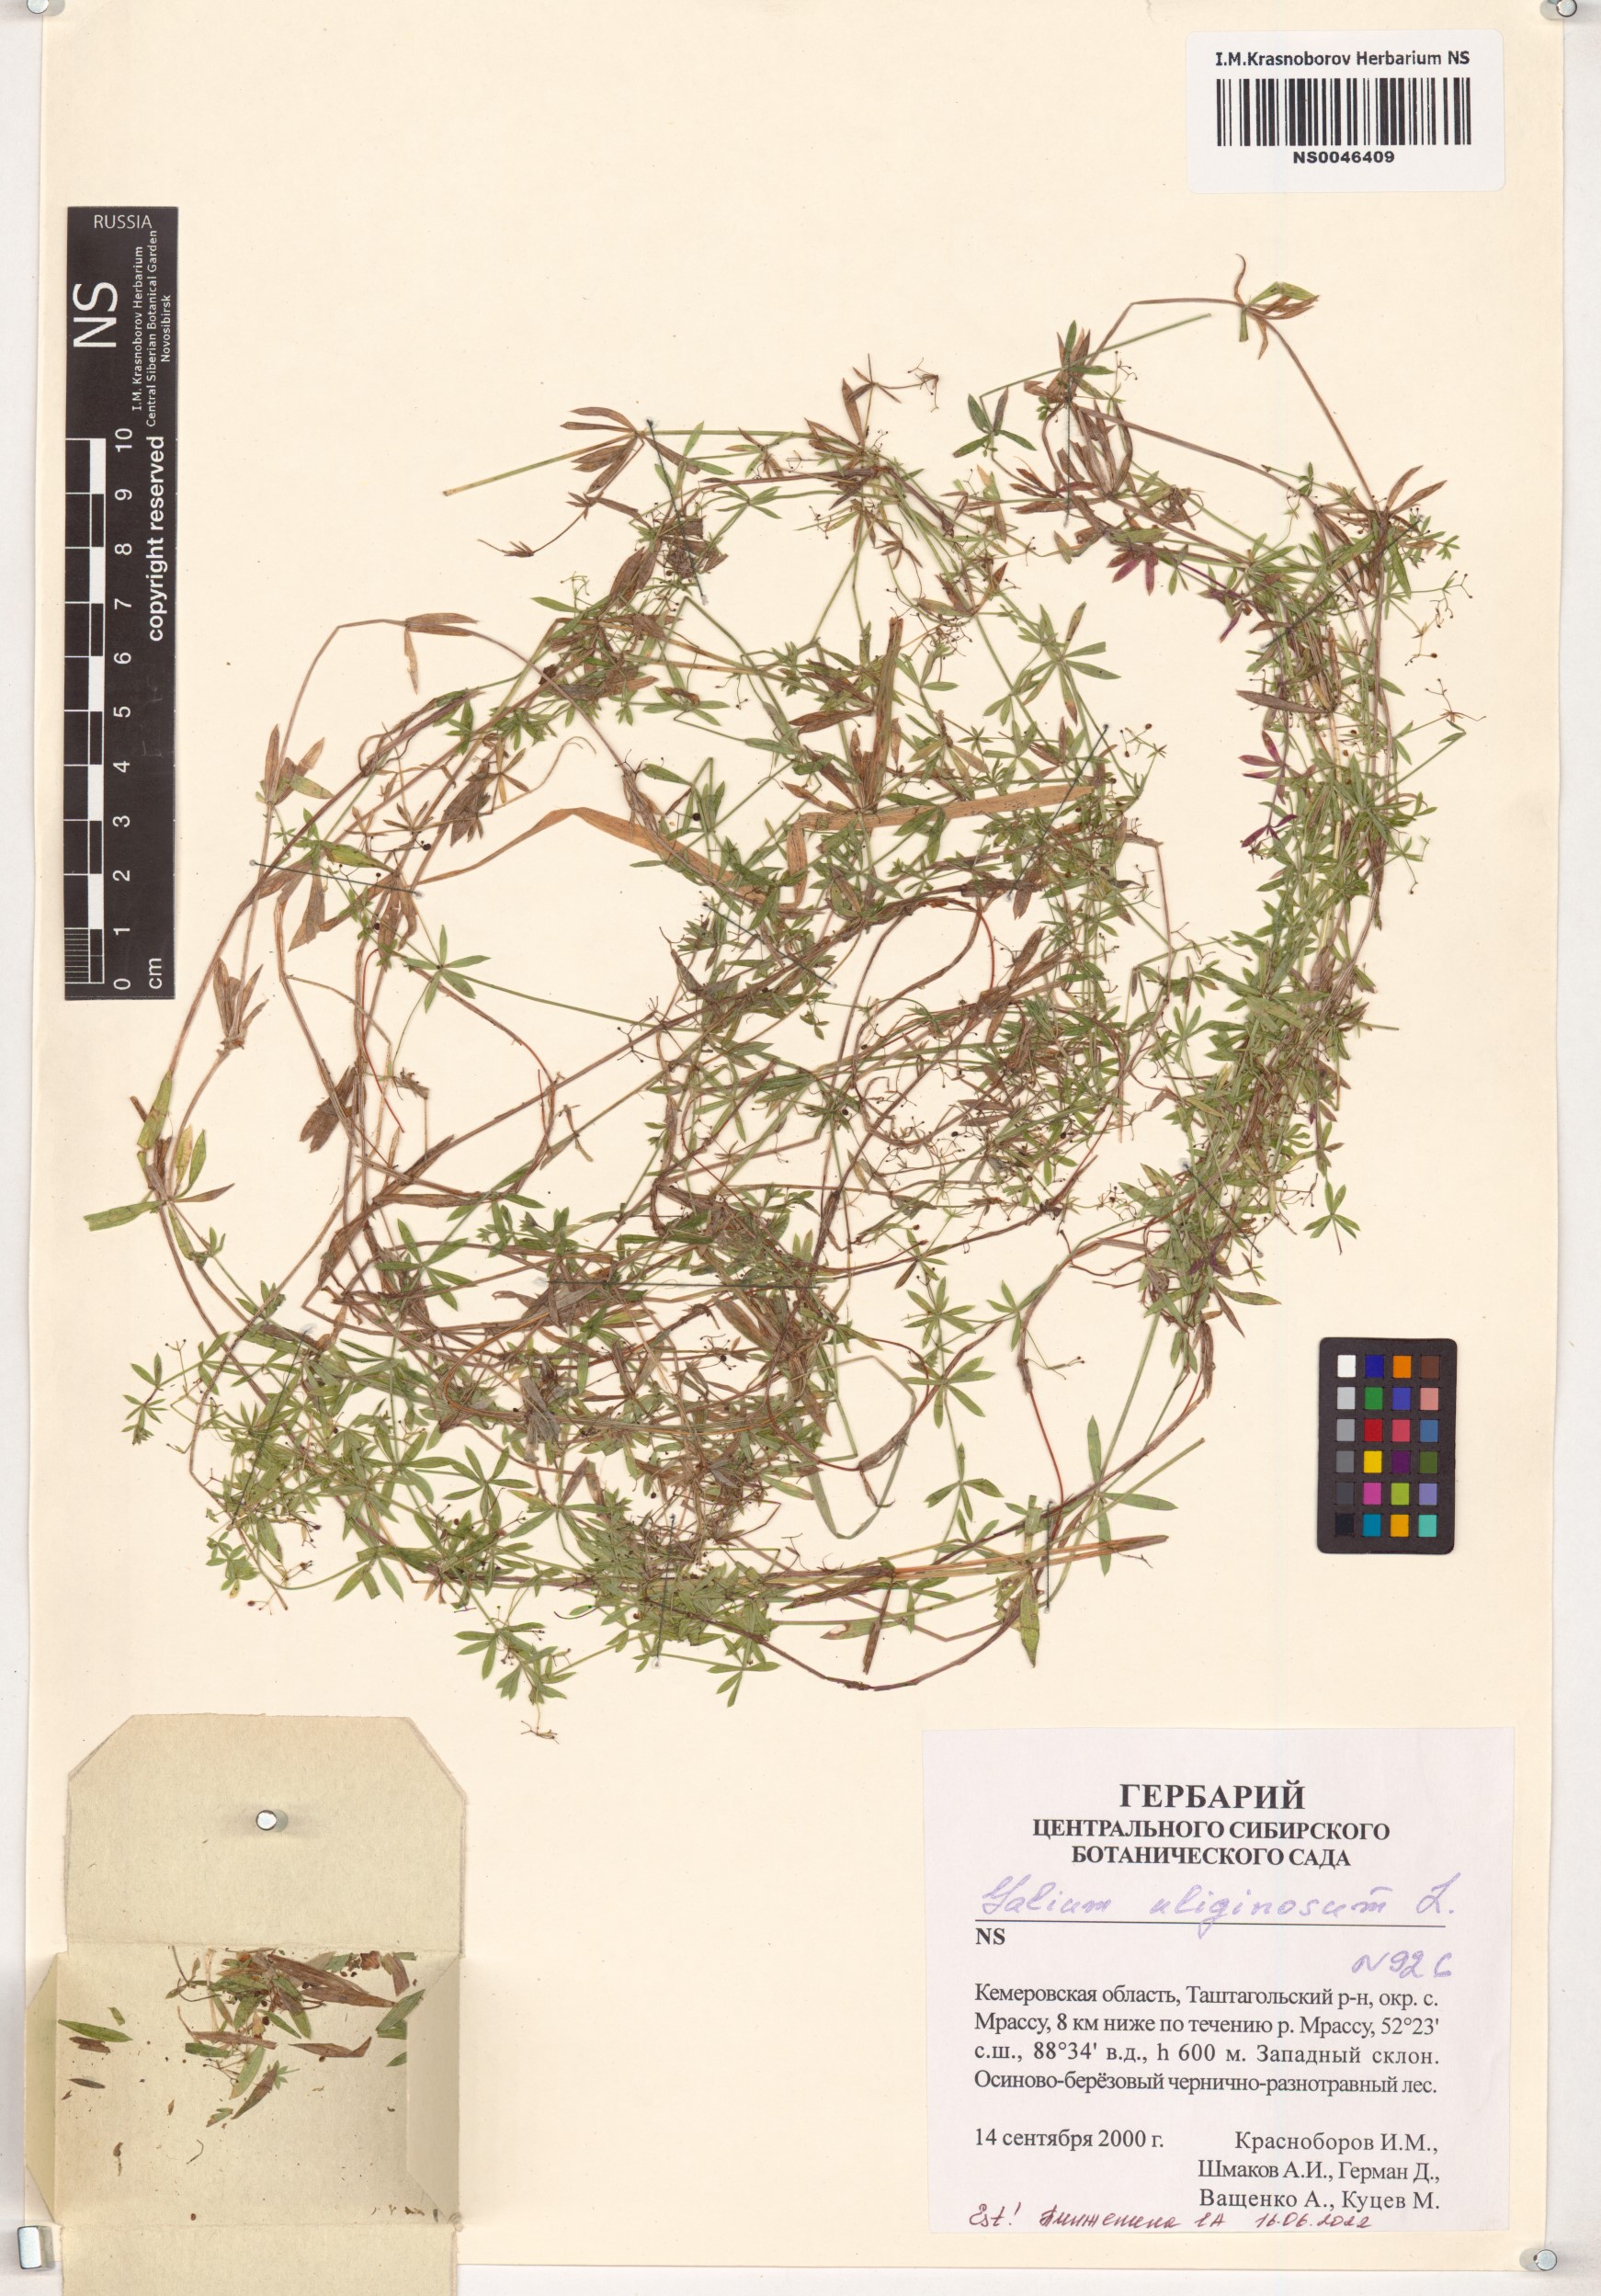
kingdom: Plantae
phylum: Tracheophyta
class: Magnoliopsida
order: Gentianales
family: Rubiaceae
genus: Galium
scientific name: Galium uliginosum
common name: Fen bedstraw
